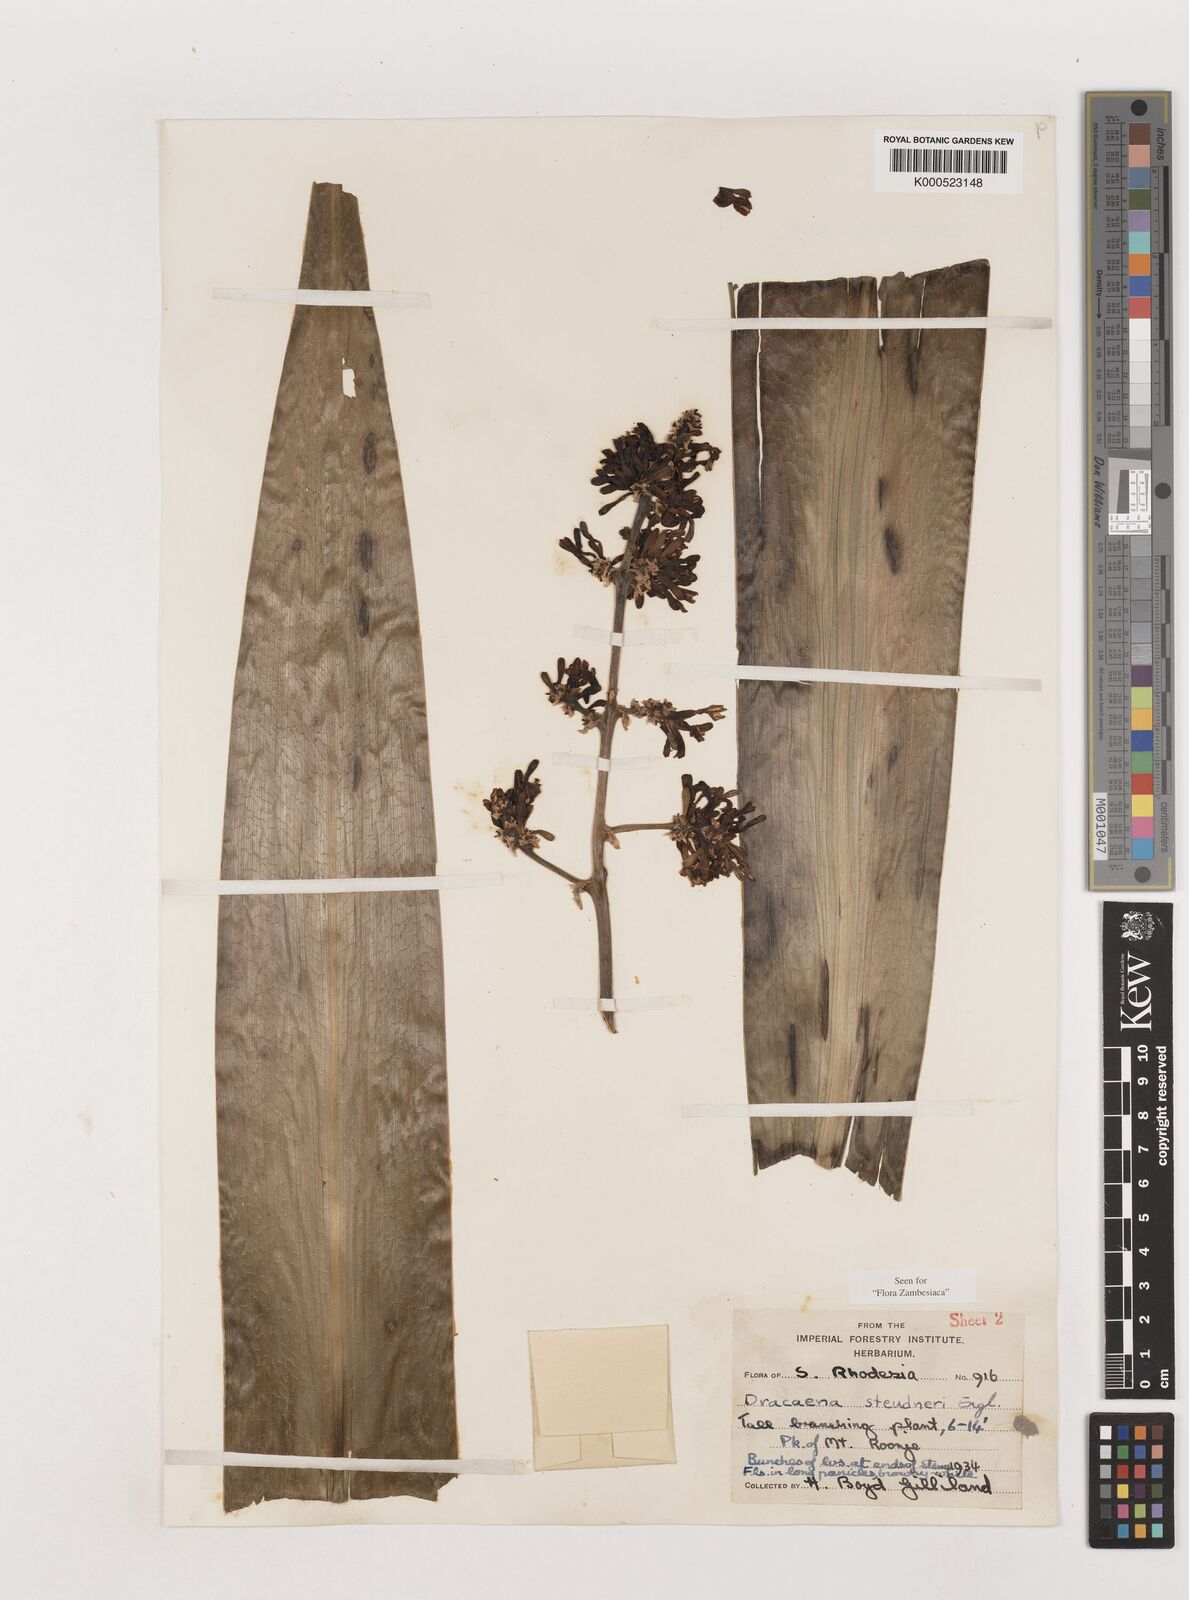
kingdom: Plantae
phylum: Tracheophyta
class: Liliopsida
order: Asparagales
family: Asparagaceae
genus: Dracaena
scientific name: Dracaena steudneri
